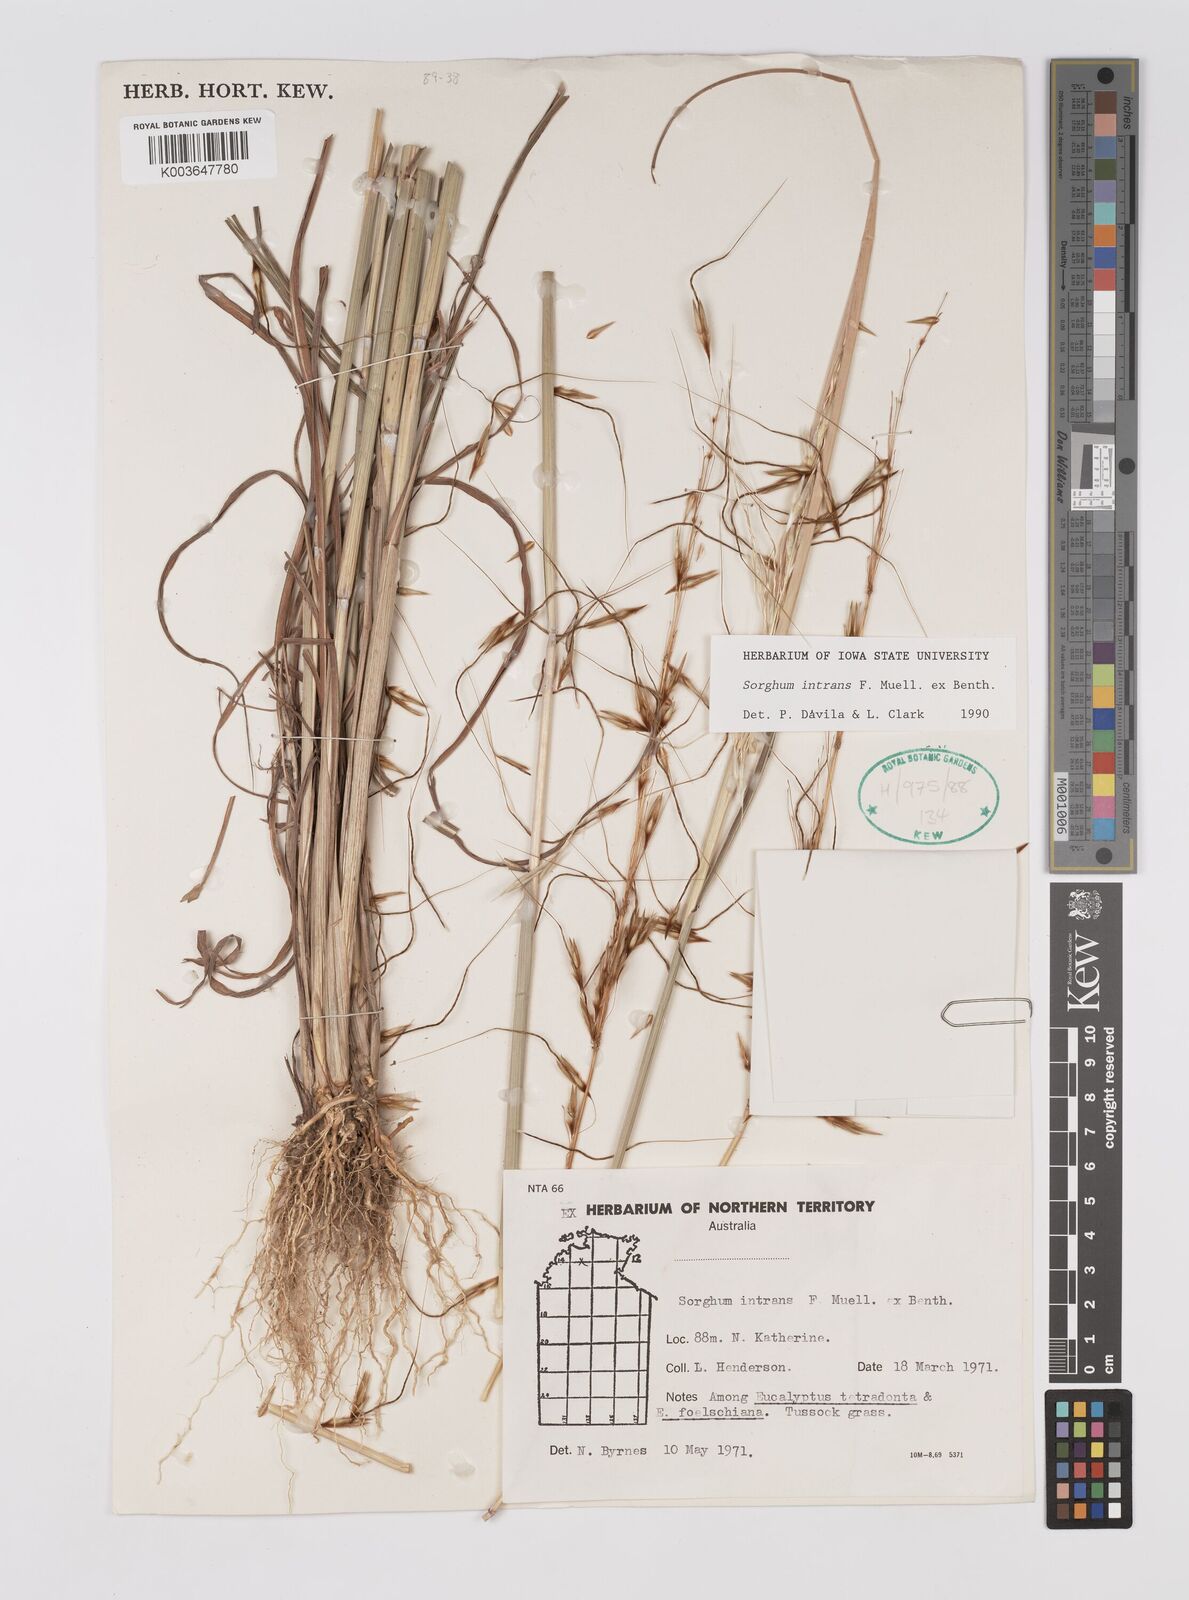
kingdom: Plantae
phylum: Tracheophyta
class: Liliopsida
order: Poales
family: Poaceae
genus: Sarga
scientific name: Sarga intrans
